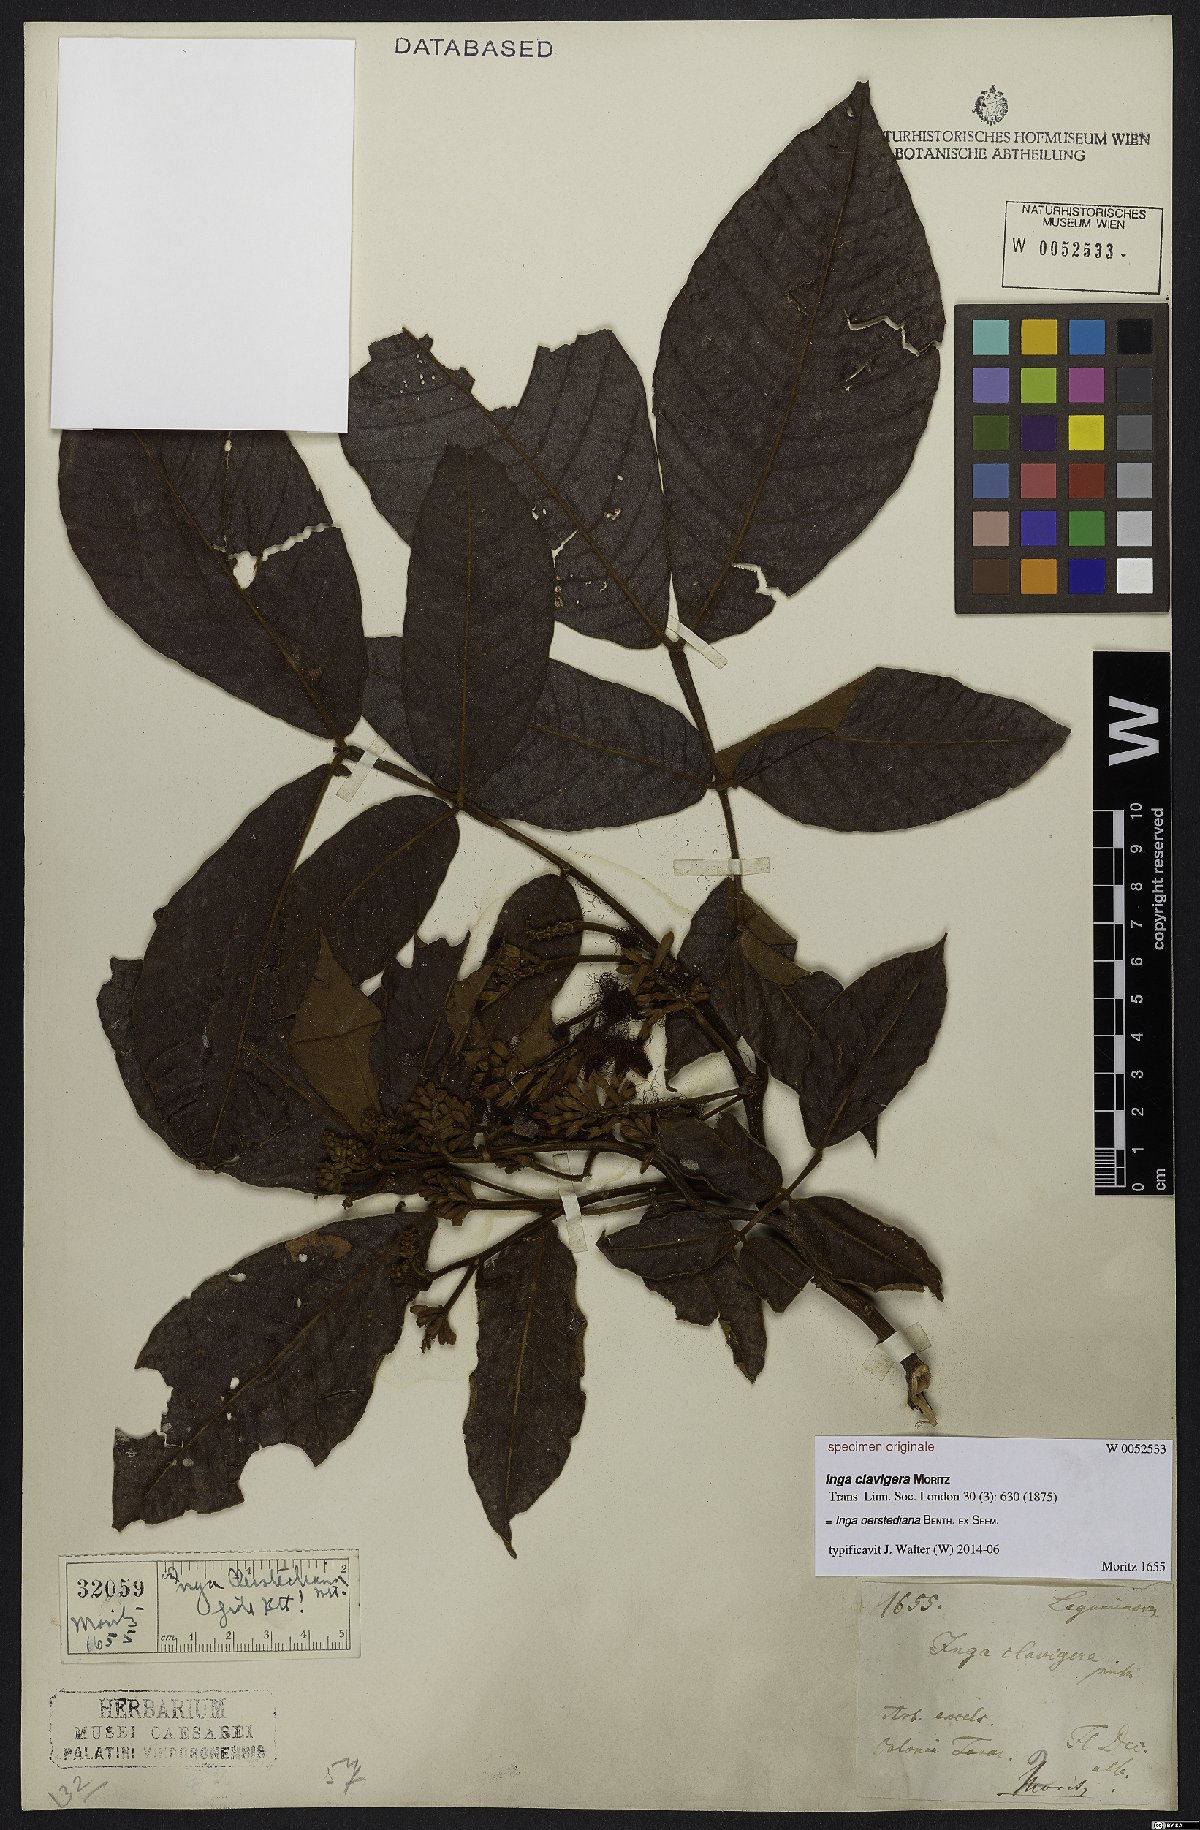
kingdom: Plantae
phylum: Tracheophyta
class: Magnoliopsida
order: Fabales
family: Fabaceae
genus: Inga
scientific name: Inga oerstediana
